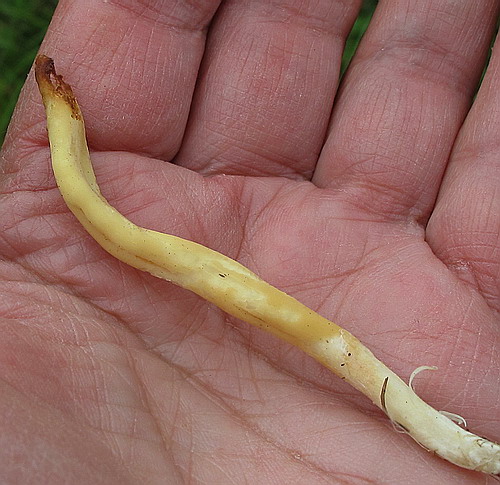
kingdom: Fungi
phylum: Basidiomycota
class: Agaricomycetes
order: Agaricales
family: Clavariaceae
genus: Clavaria
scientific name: Clavaria amoenoides
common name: bleggul køllesvamp
